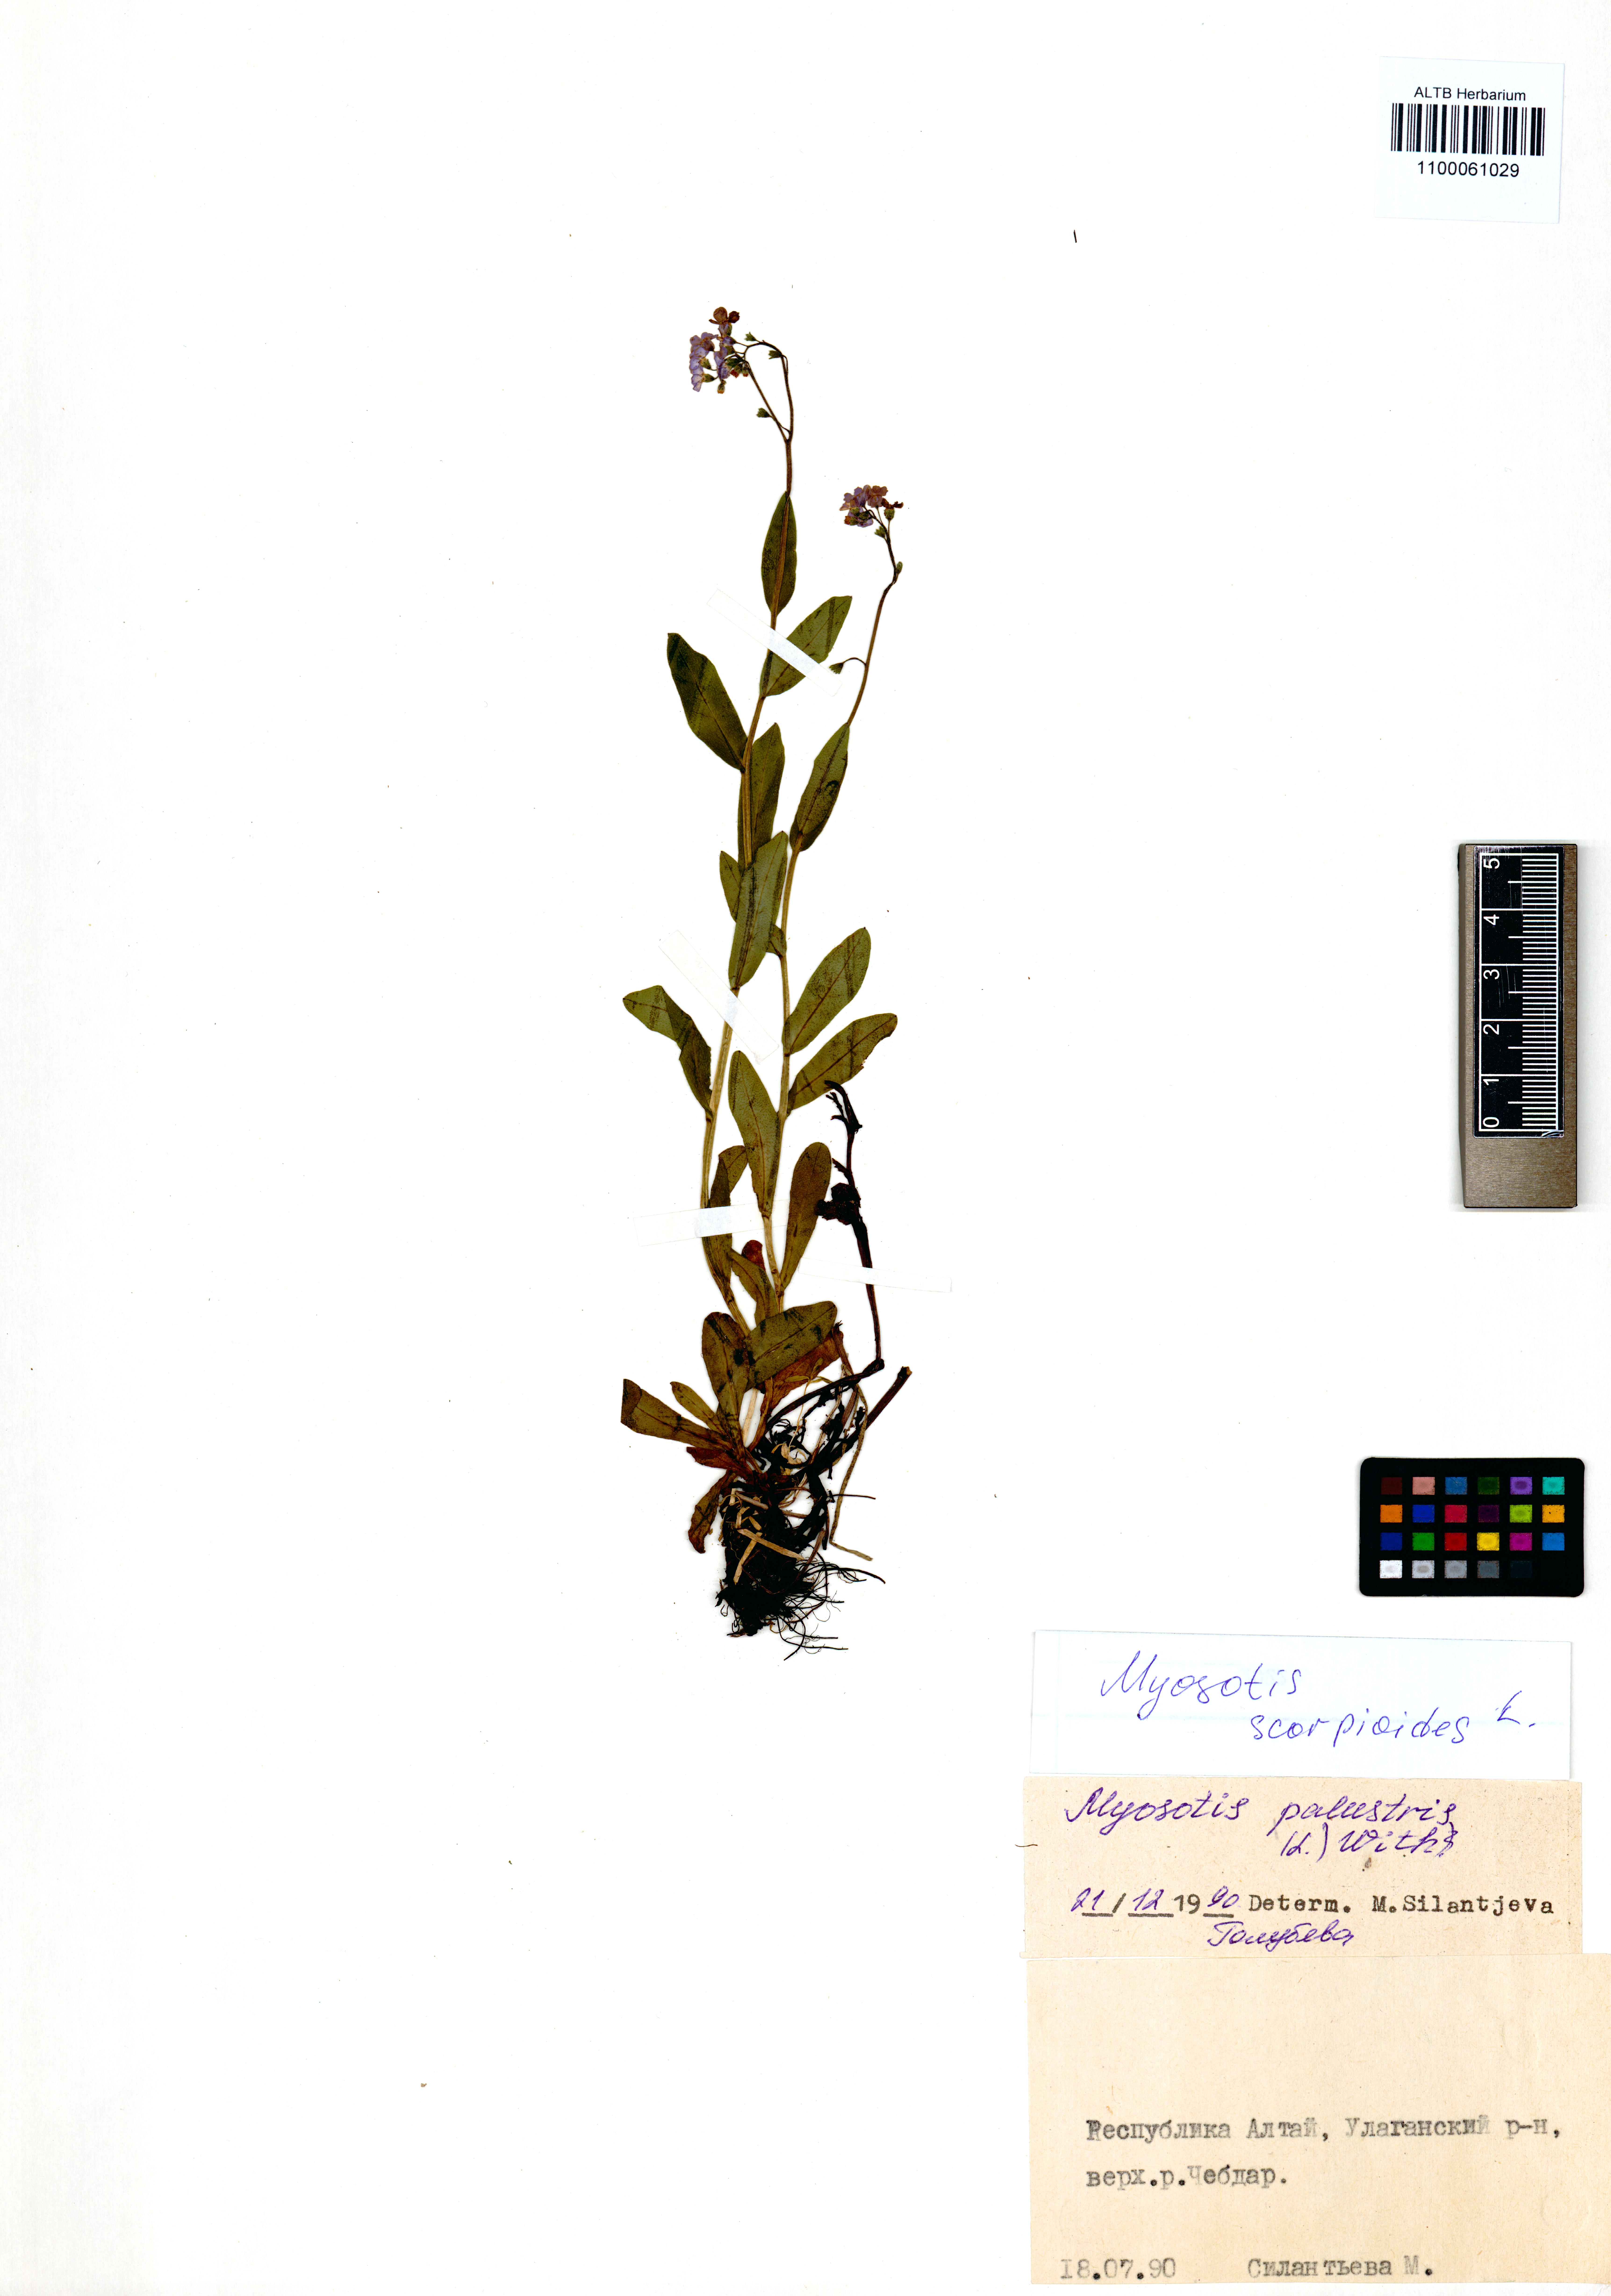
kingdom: Plantae
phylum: Tracheophyta
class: Magnoliopsida
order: Boraginales
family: Boraginaceae
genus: Myosotis
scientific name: Myosotis scorpioides
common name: Water forget-me-not
